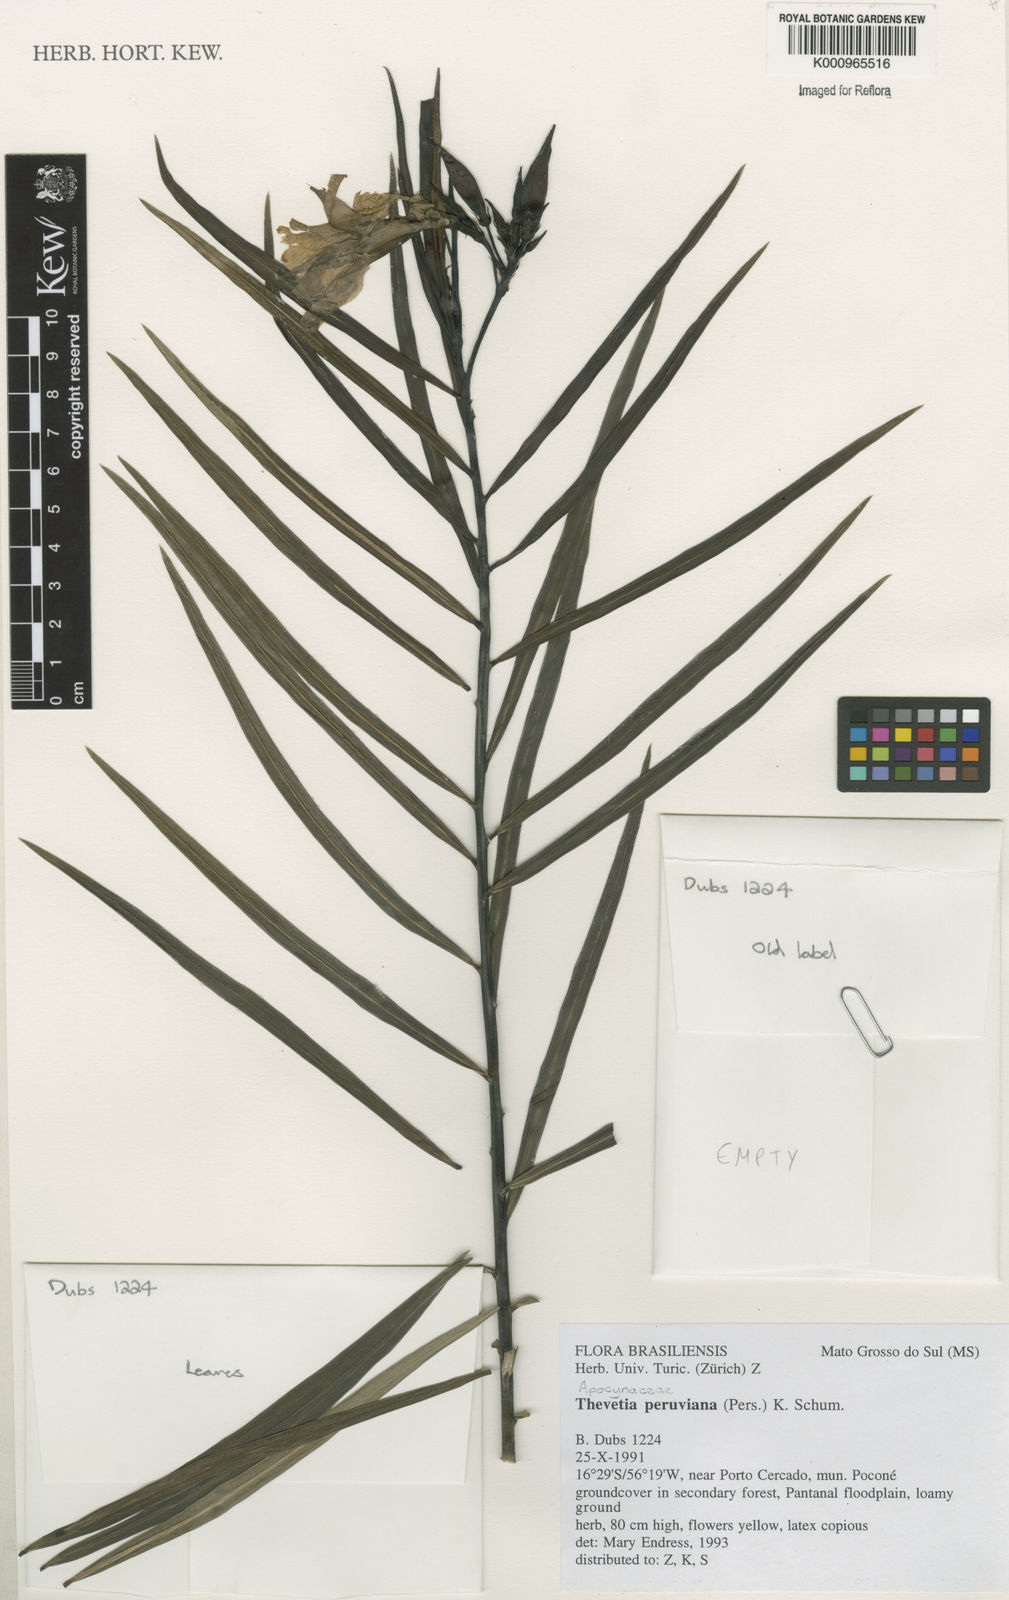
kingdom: Plantae
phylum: Tracheophyta
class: Magnoliopsida
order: Gentianales
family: Apocynaceae
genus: Cascabela
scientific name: Cascabela thevetia
